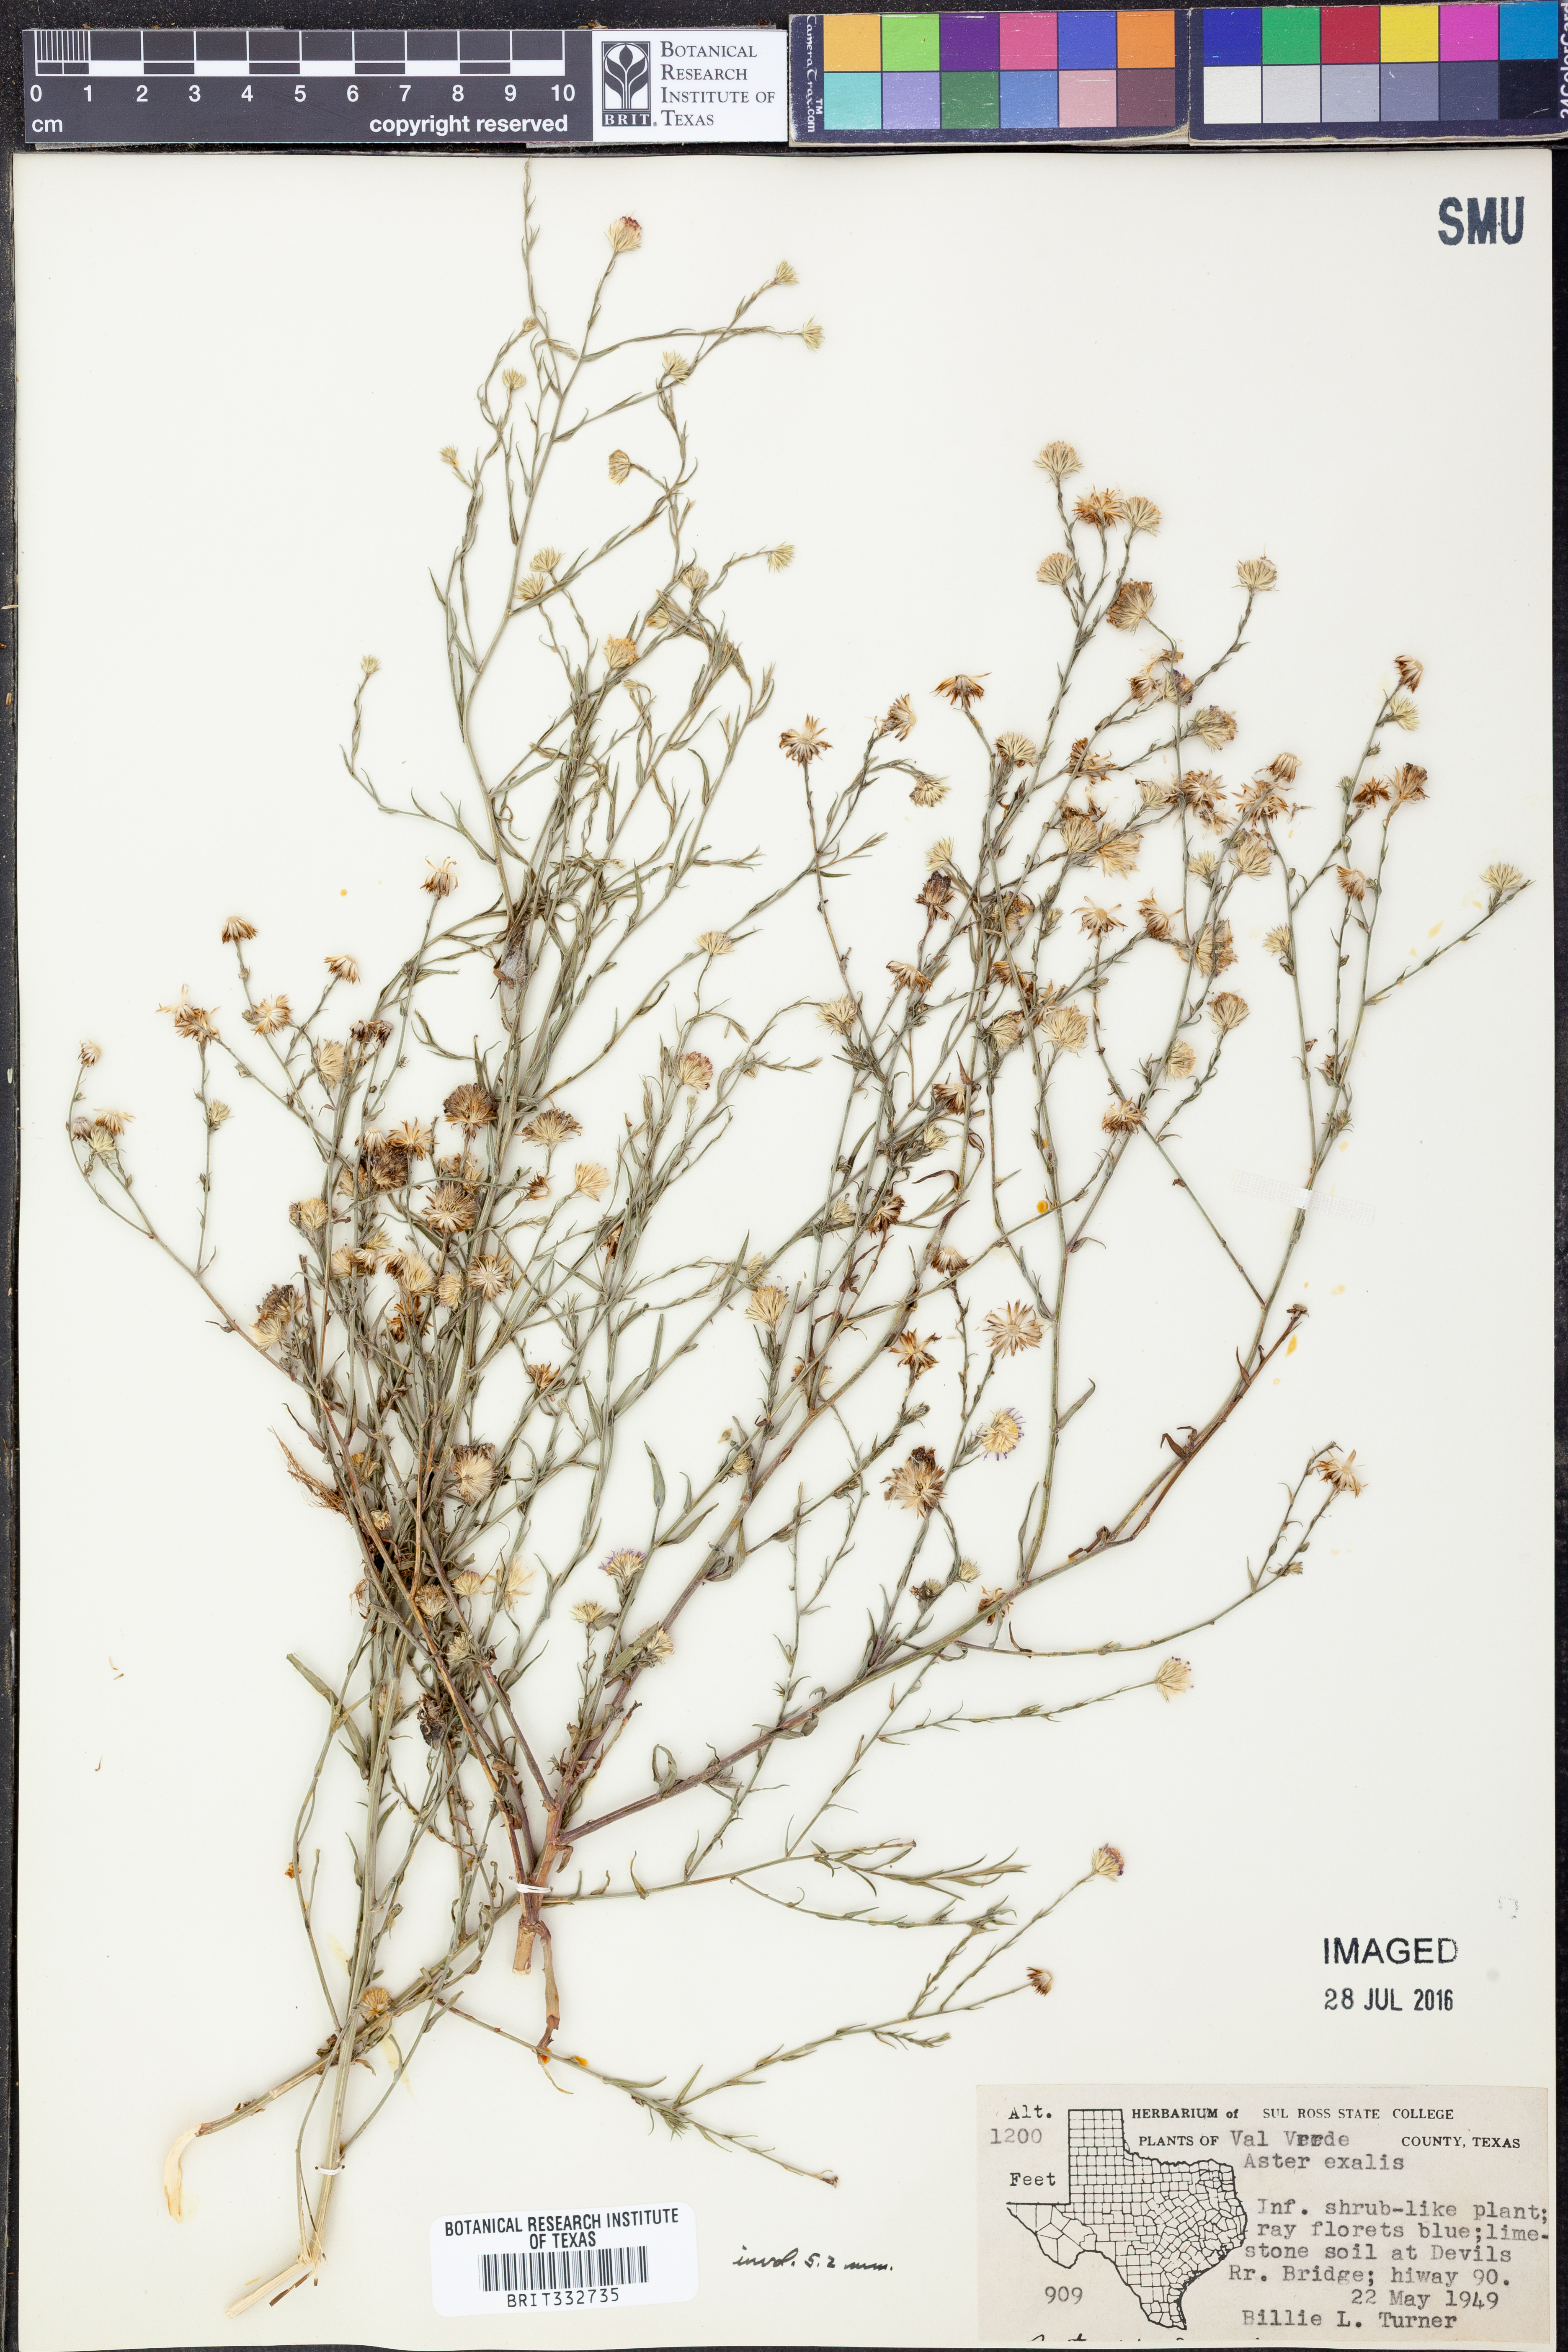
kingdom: Plantae
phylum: Tracheophyta
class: Magnoliopsida
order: Asterales
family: Asteraceae
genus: Symphyotrichum
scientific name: Symphyotrichum expansum
